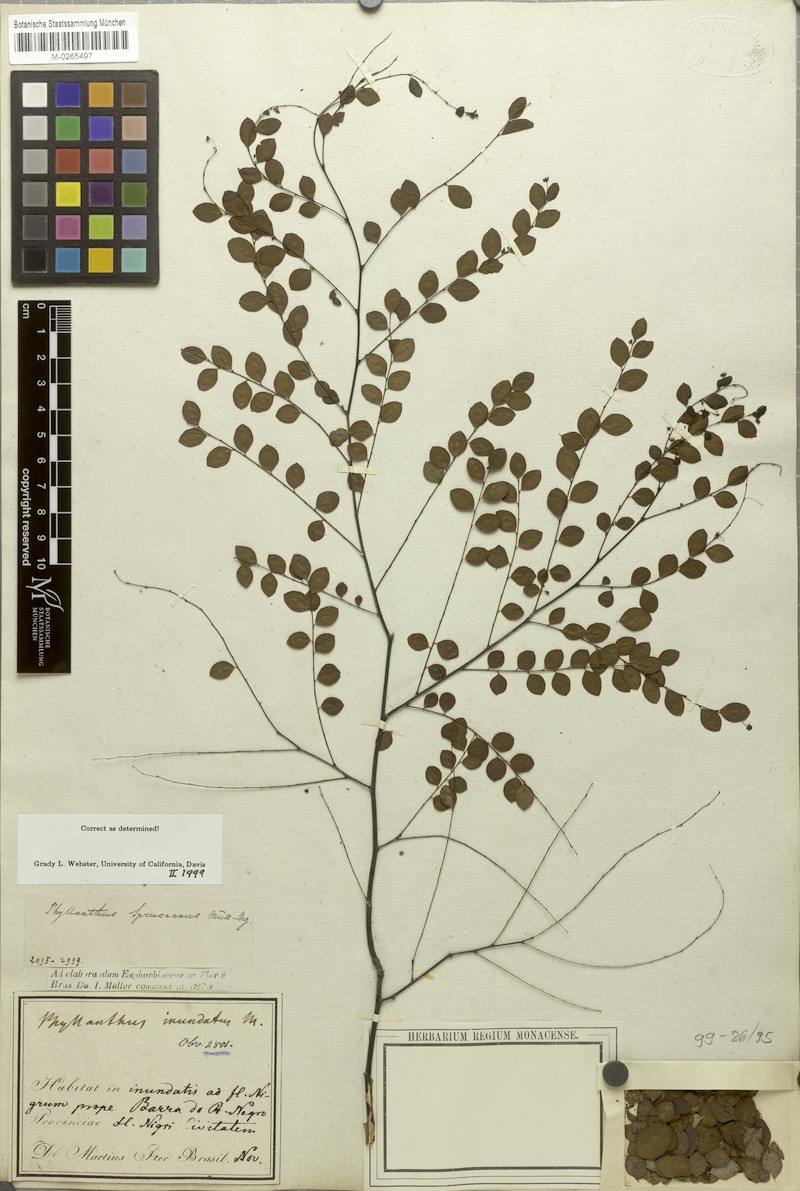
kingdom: Plantae
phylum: Tracheophyta
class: Magnoliopsida
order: Malpighiales
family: Phyllanthaceae
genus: Phyllanthus
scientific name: Phyllanthus spruceanus
